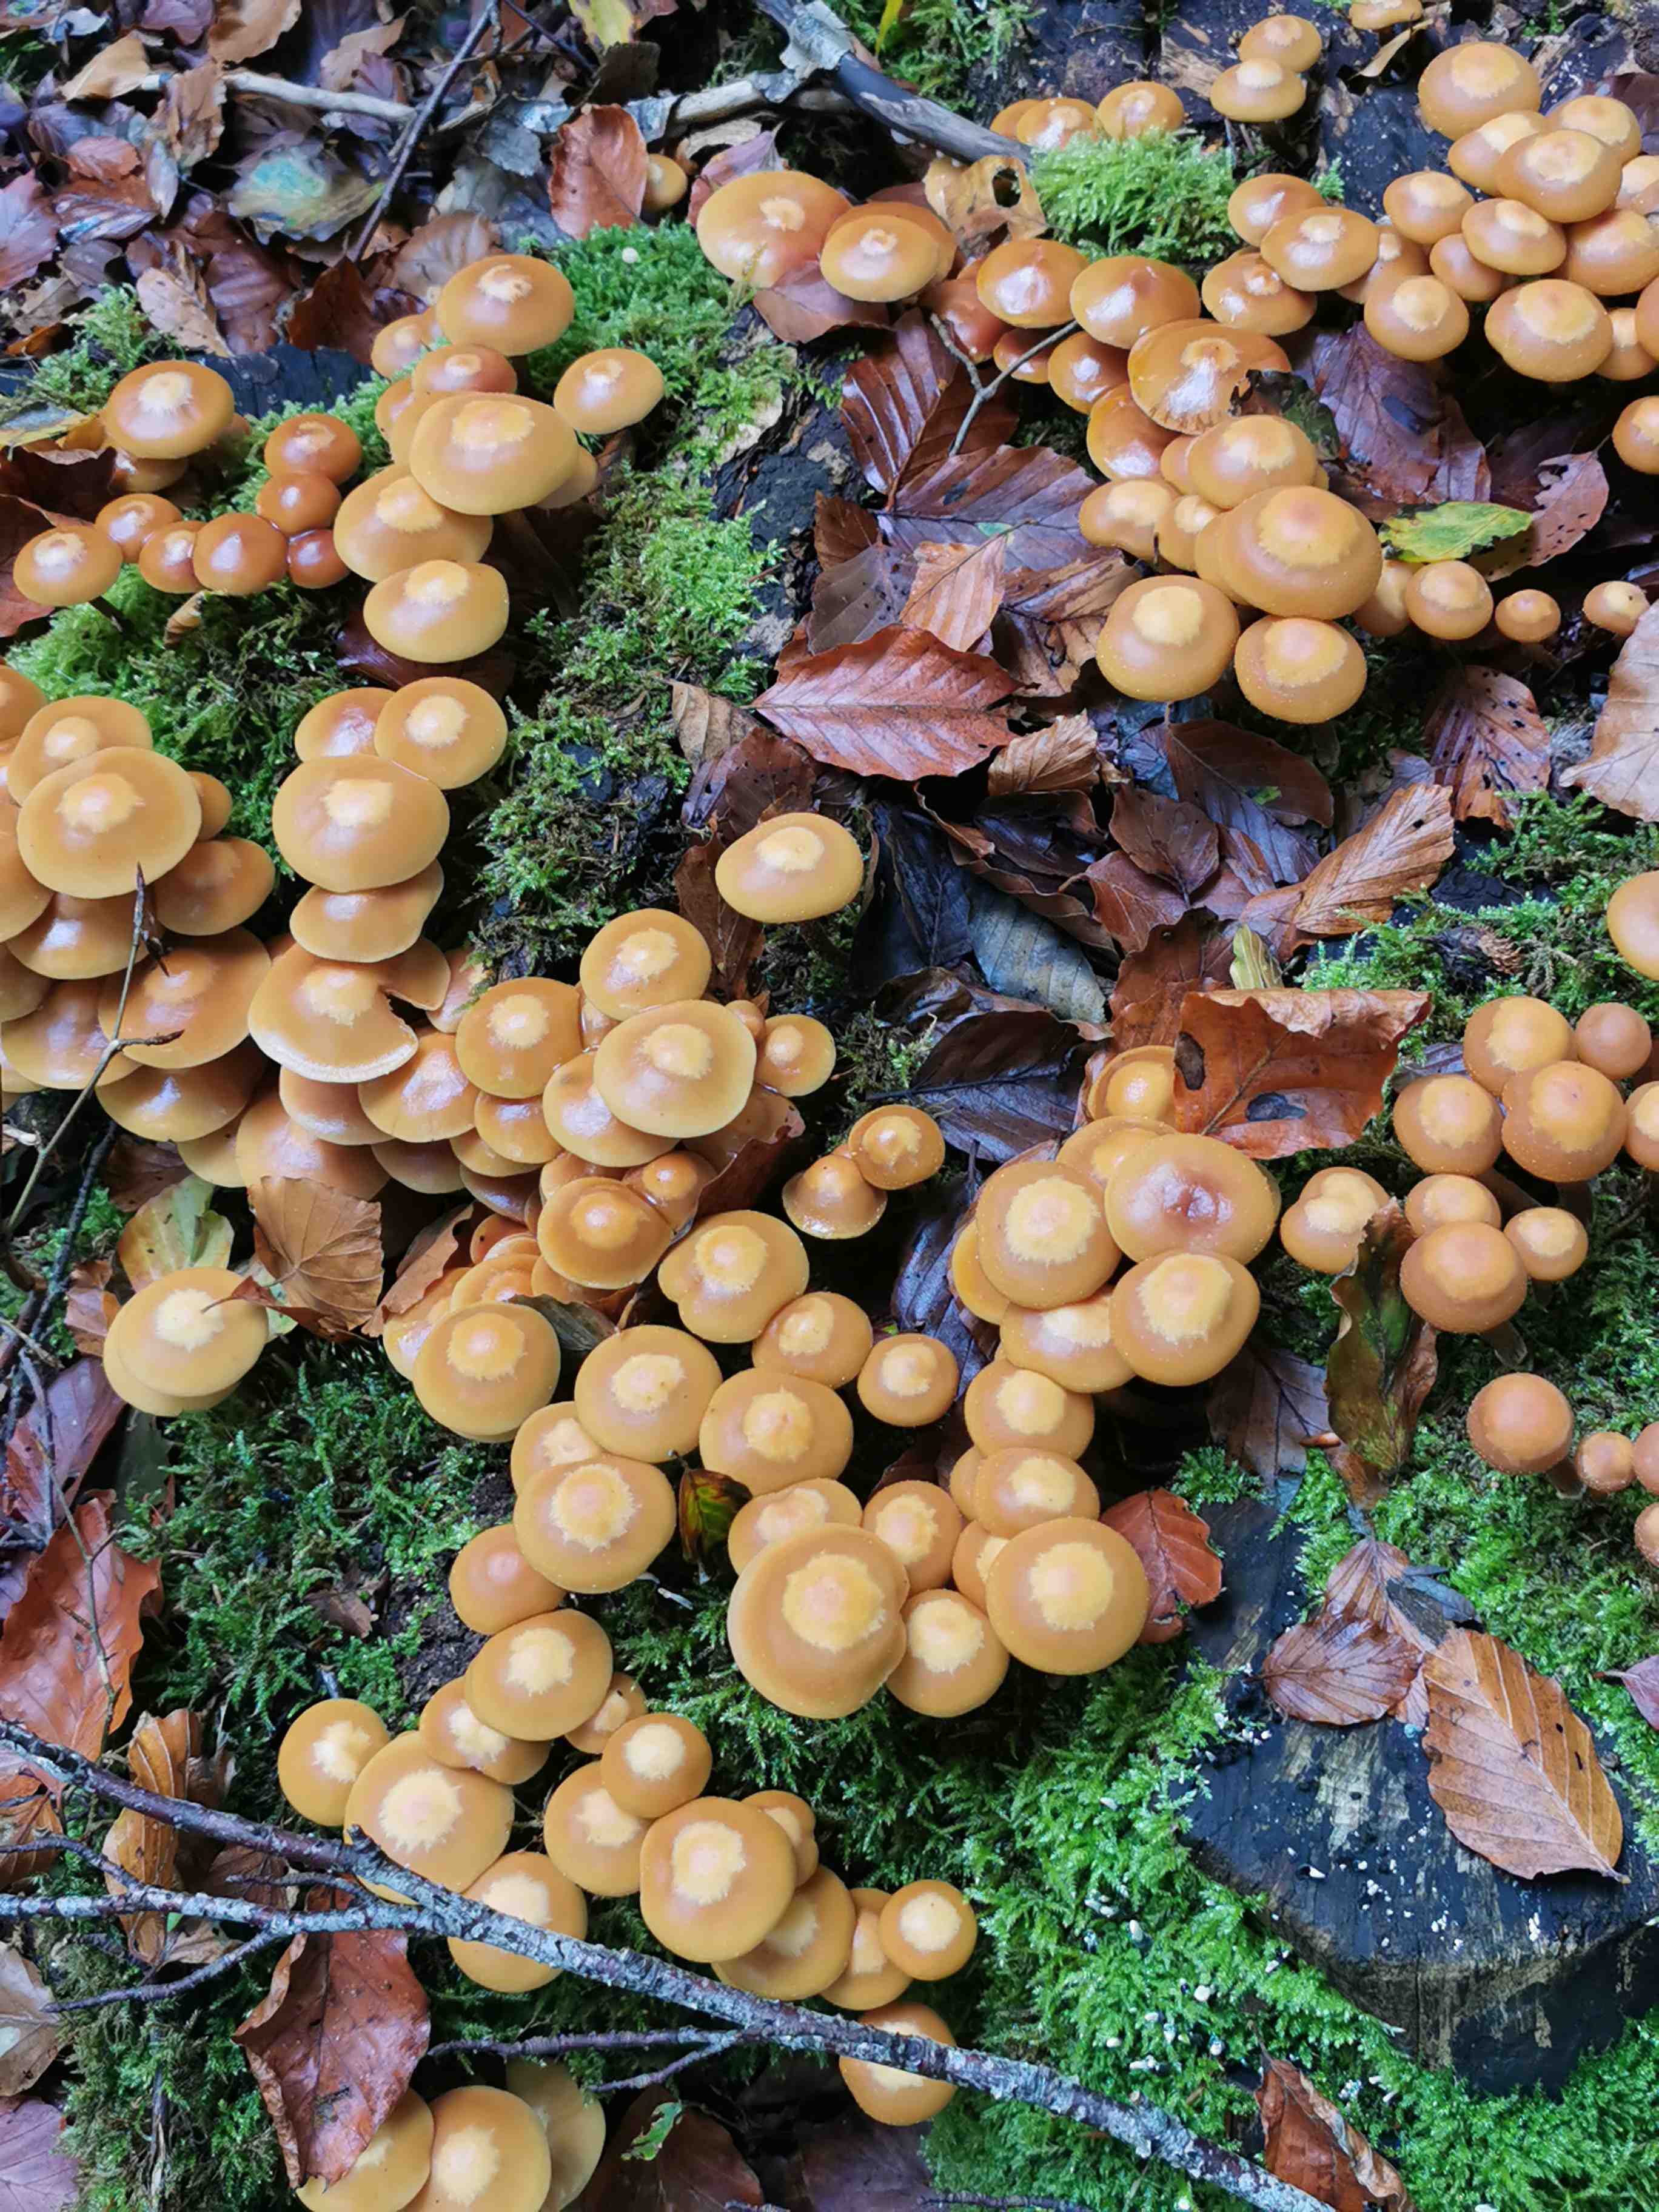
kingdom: Fungi
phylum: Basidiomycota
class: Agaricomycetes
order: Agaricales
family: Strophariaceae
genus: Kuehneromyces
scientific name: Kuehneromyces mutabilis
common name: foranderlig skælhat
